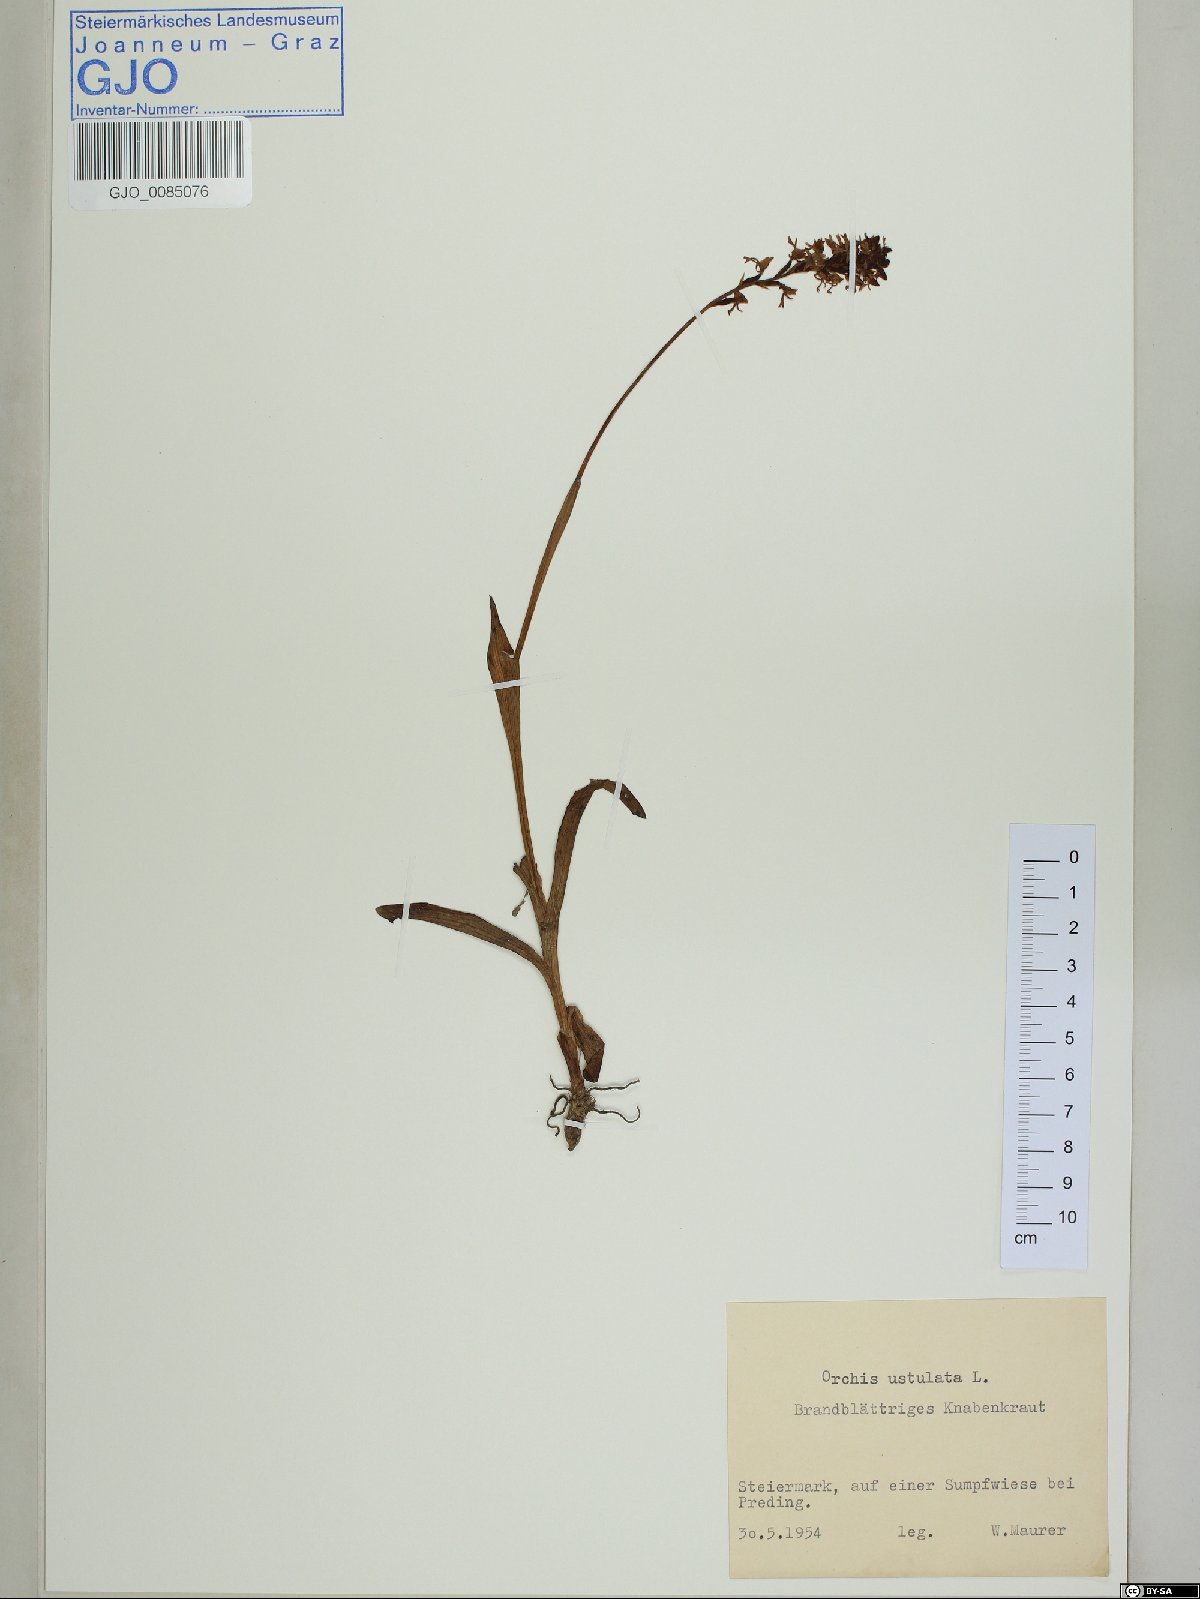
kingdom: Plantae
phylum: Tracheophyta
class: Liliopsida
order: Asparagales
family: Orchidaceae
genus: Neotinea
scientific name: Neotinea ustulata
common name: Burnt orchid
